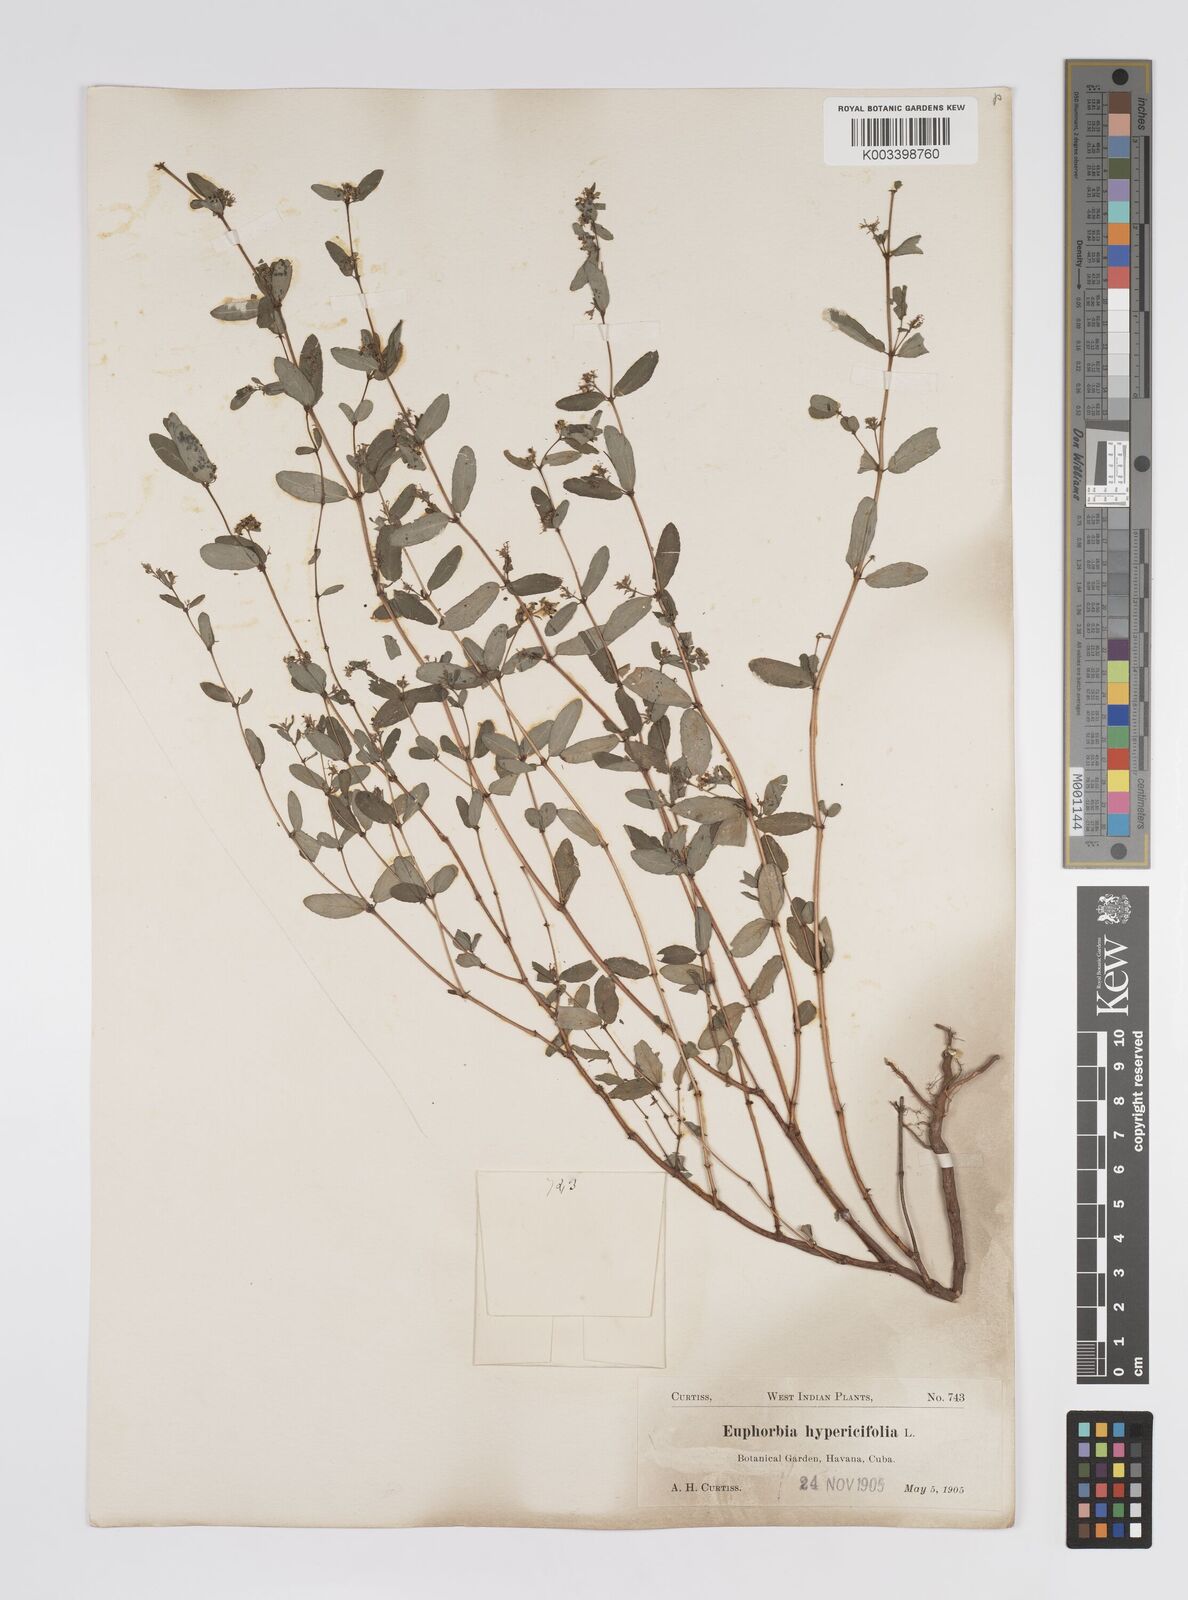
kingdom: Plantae
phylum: Tracheophyta
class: Magnoliopsida
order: Malpighiales
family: Euphorbiaceae
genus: Euphorbia
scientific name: Euphorbia
